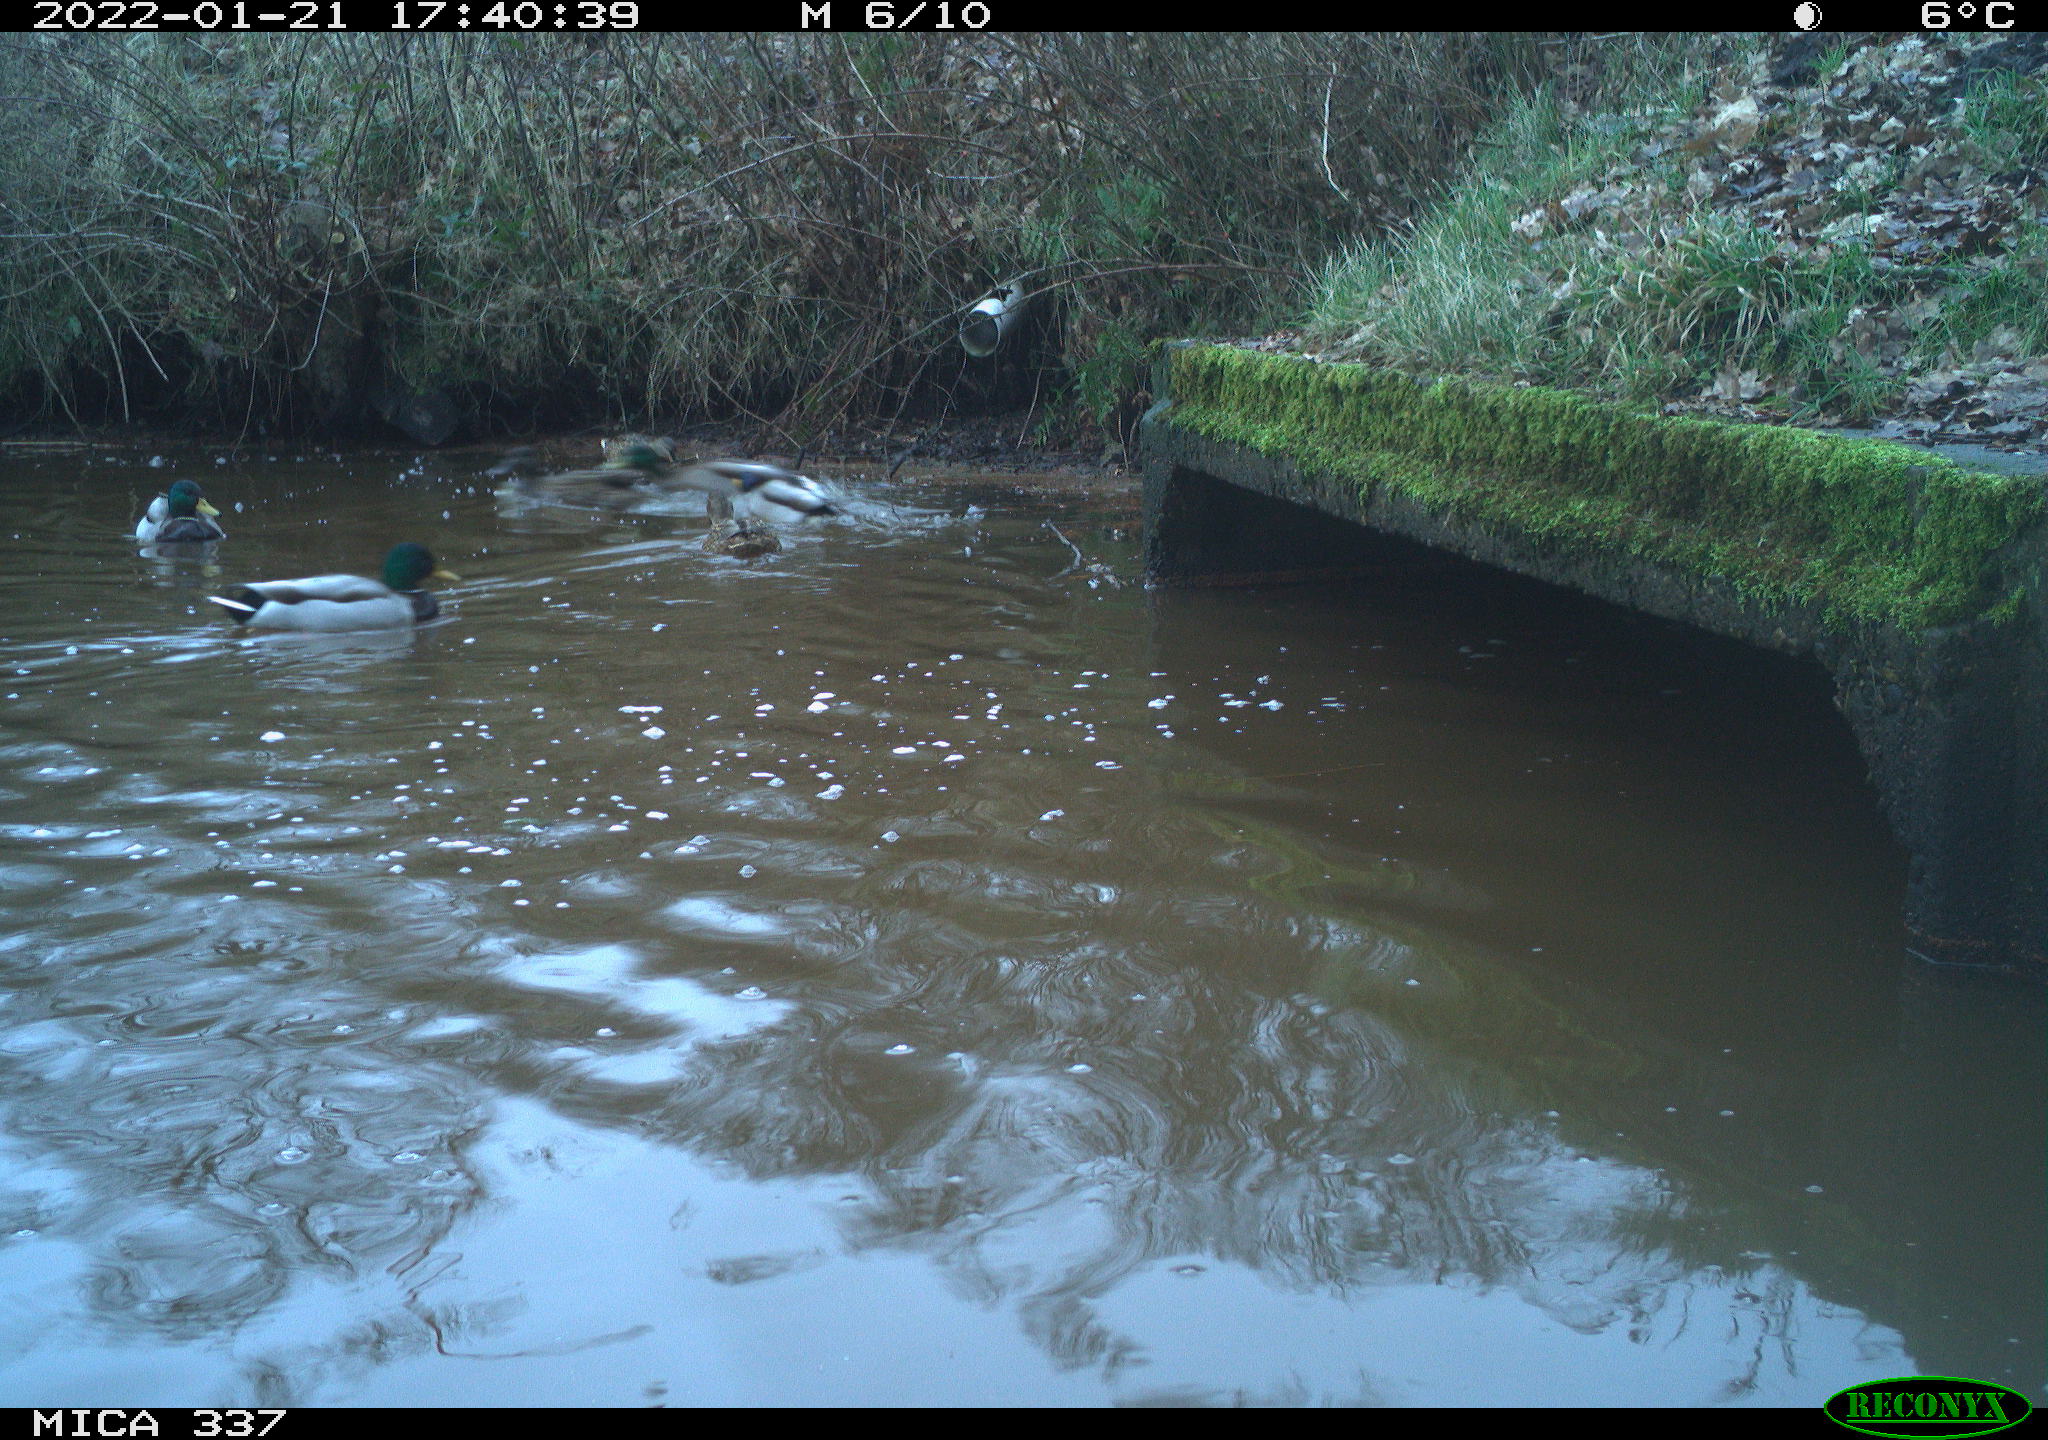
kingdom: Animalia
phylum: Chordata
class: Aves
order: Anseriformes
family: Anatidae
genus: Anas
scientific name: Anas platyrhynchos
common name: Mallard
